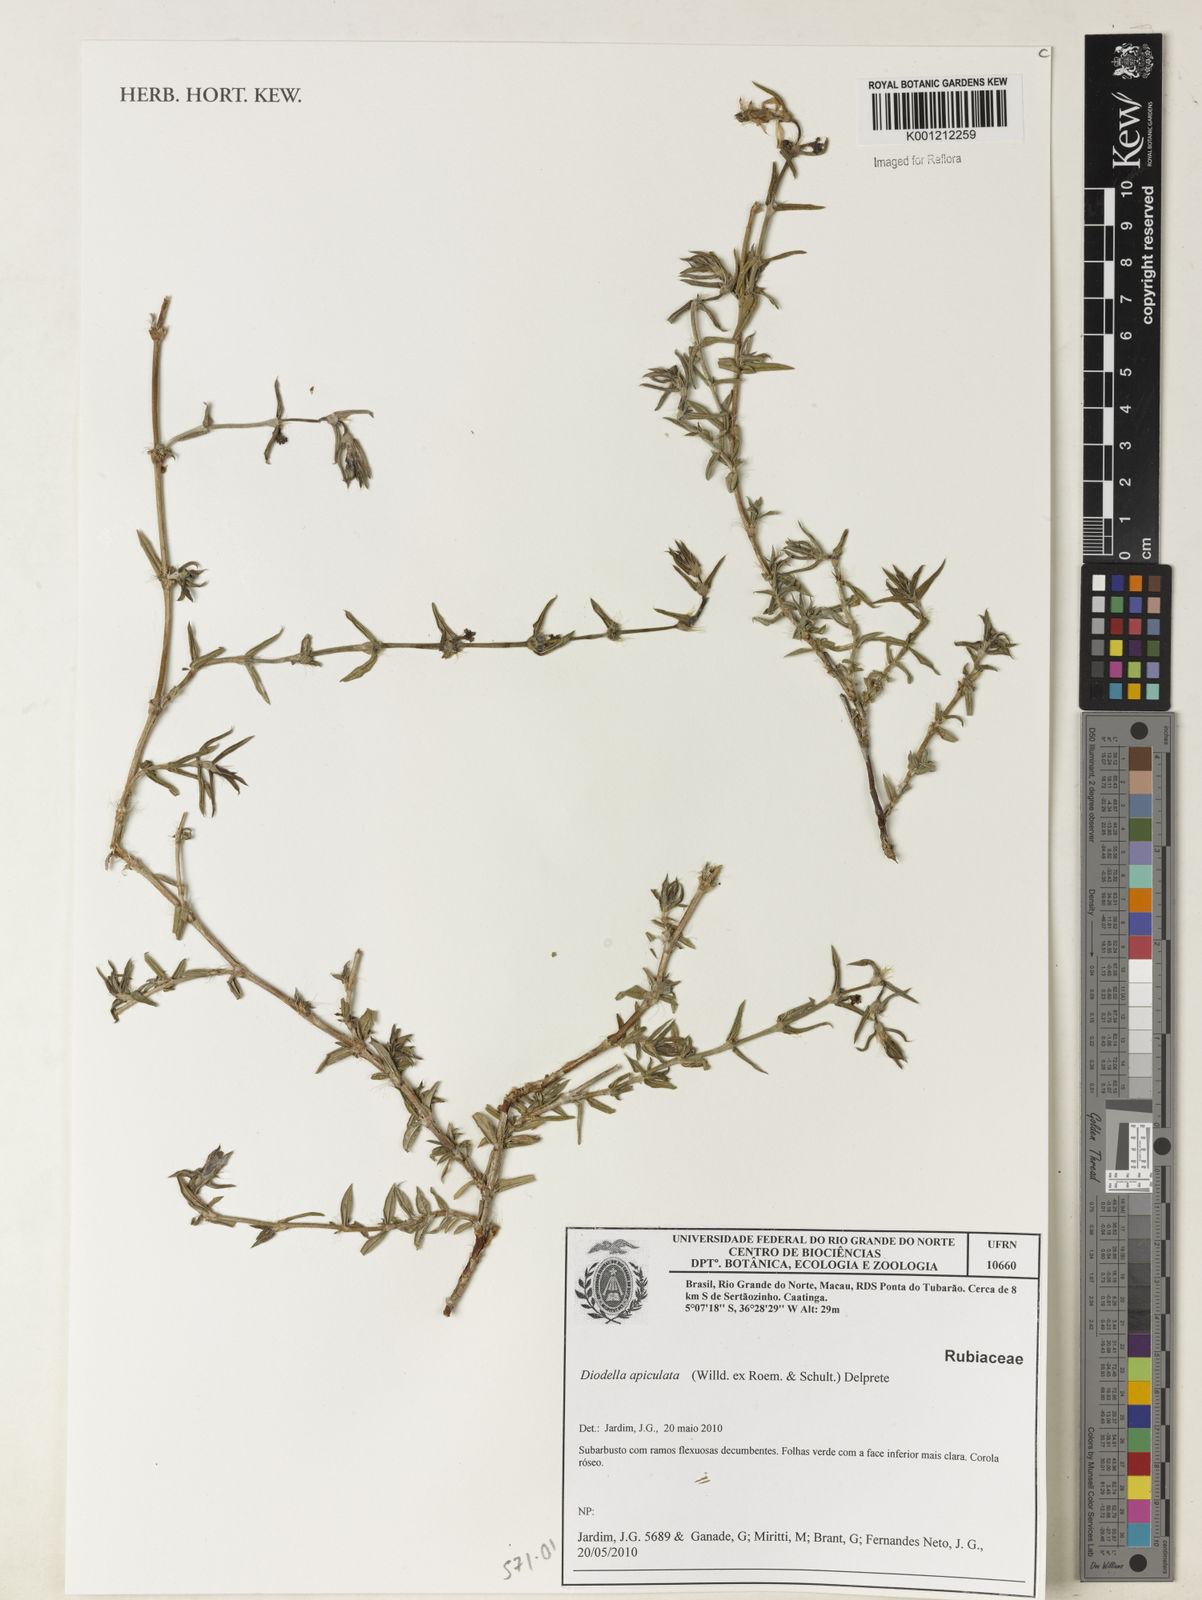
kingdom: Plantae
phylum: Tracheophyta
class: Magnoliopsida
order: Gentianales
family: Rubiaceae
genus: Hexasepalum
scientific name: Hexasepalum apiculatum
